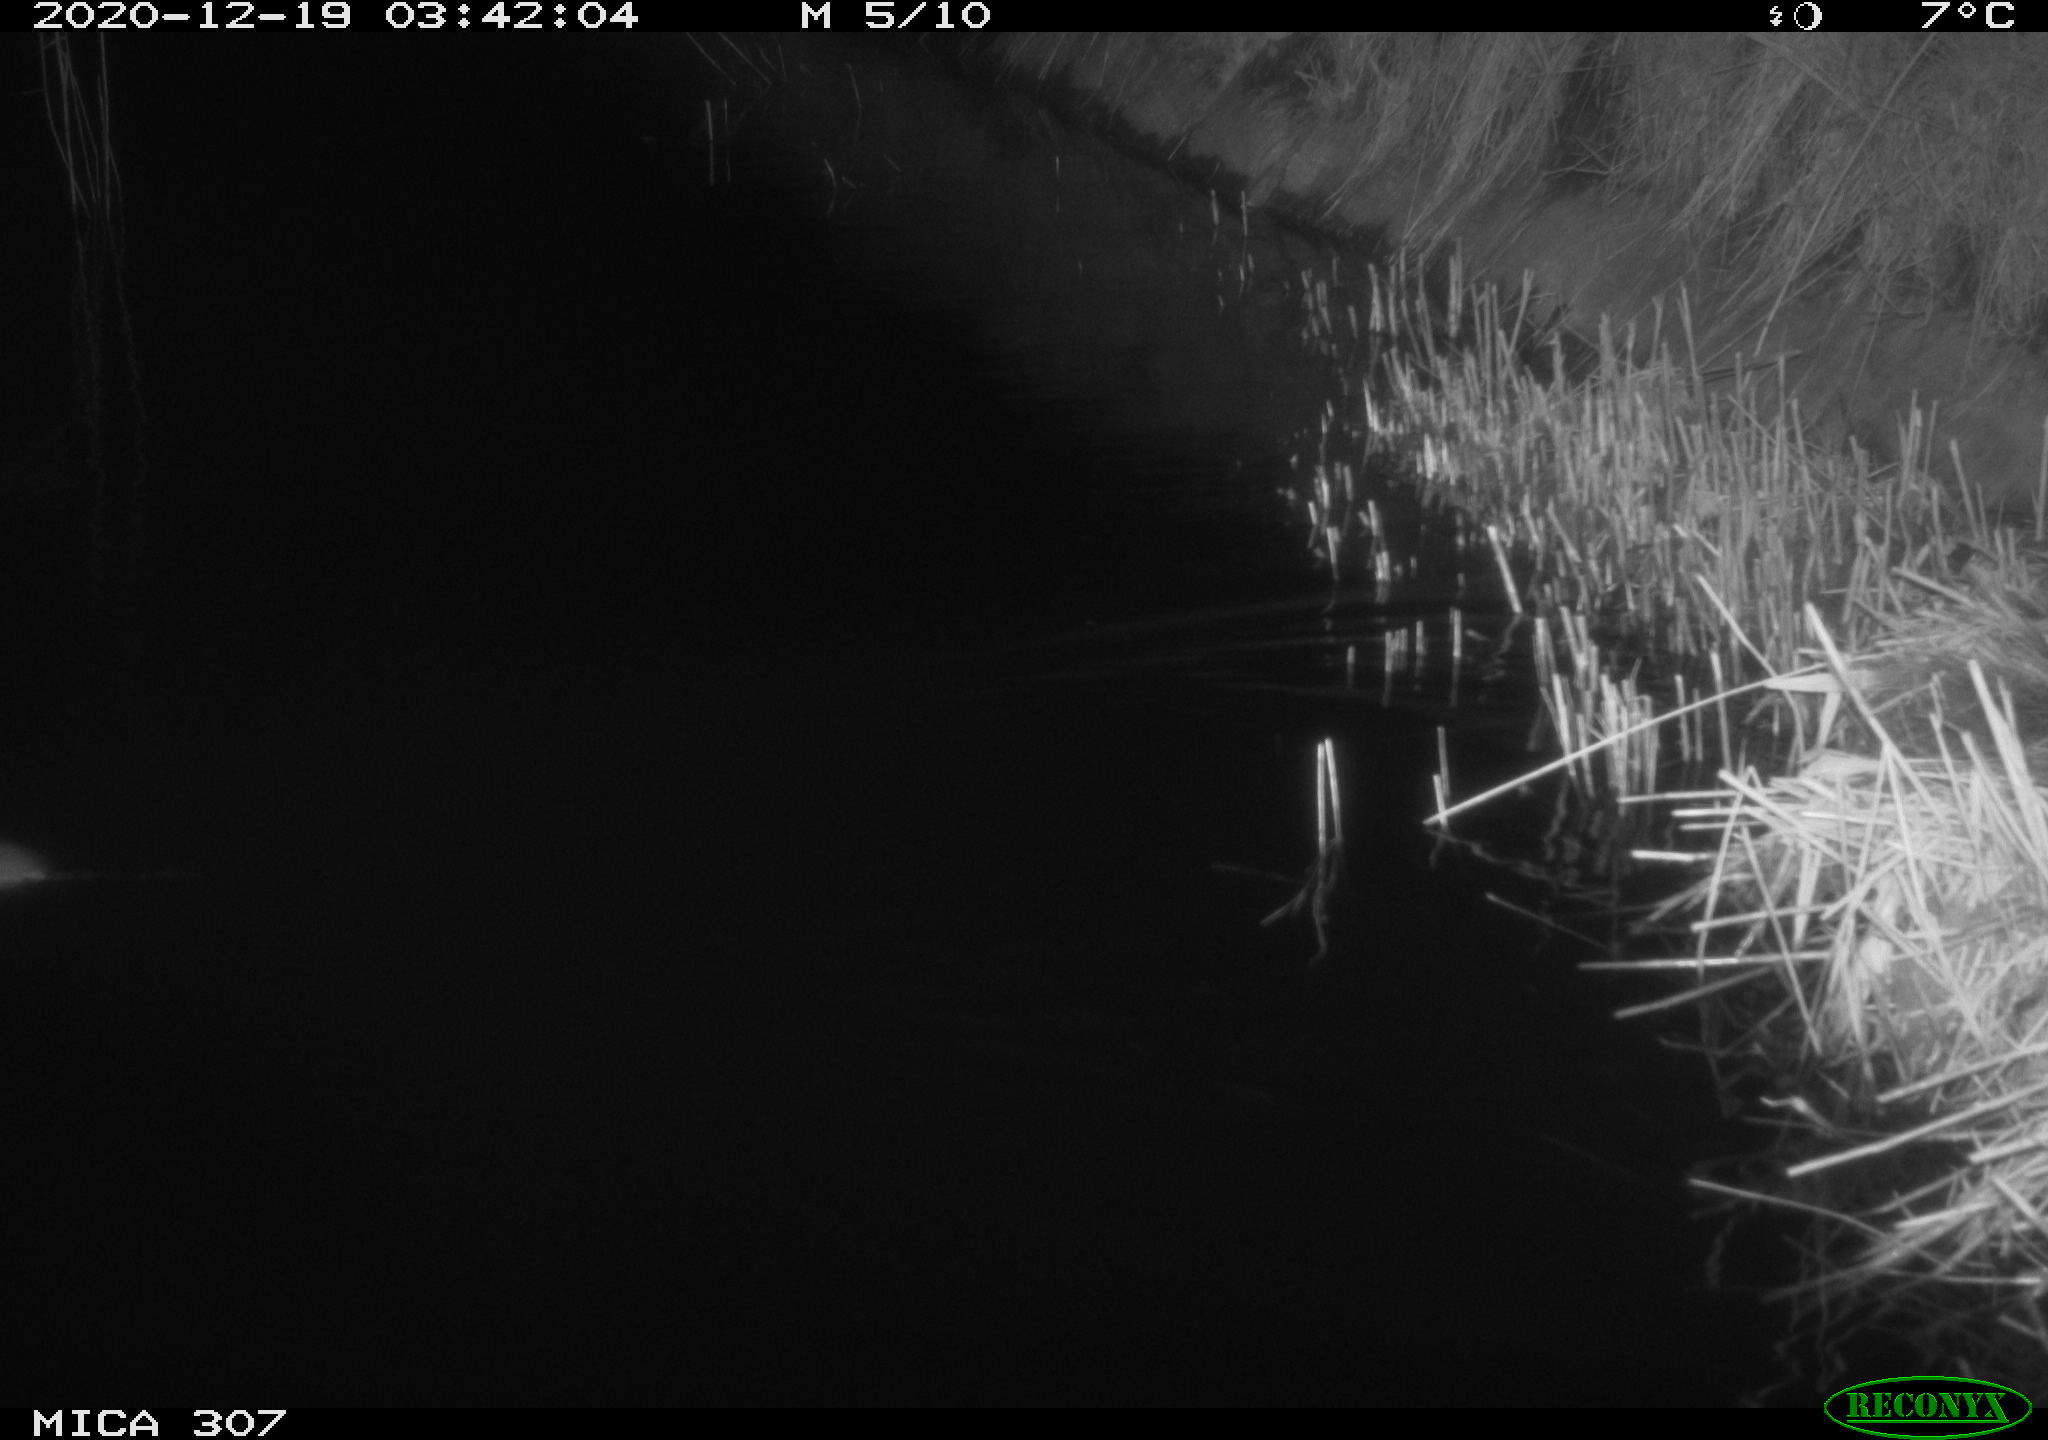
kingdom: Animalia
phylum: Chordata
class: Mammalia
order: Rodentia
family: Muridae
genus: Rattus
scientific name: Rattus norvegicus
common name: Brown rat
